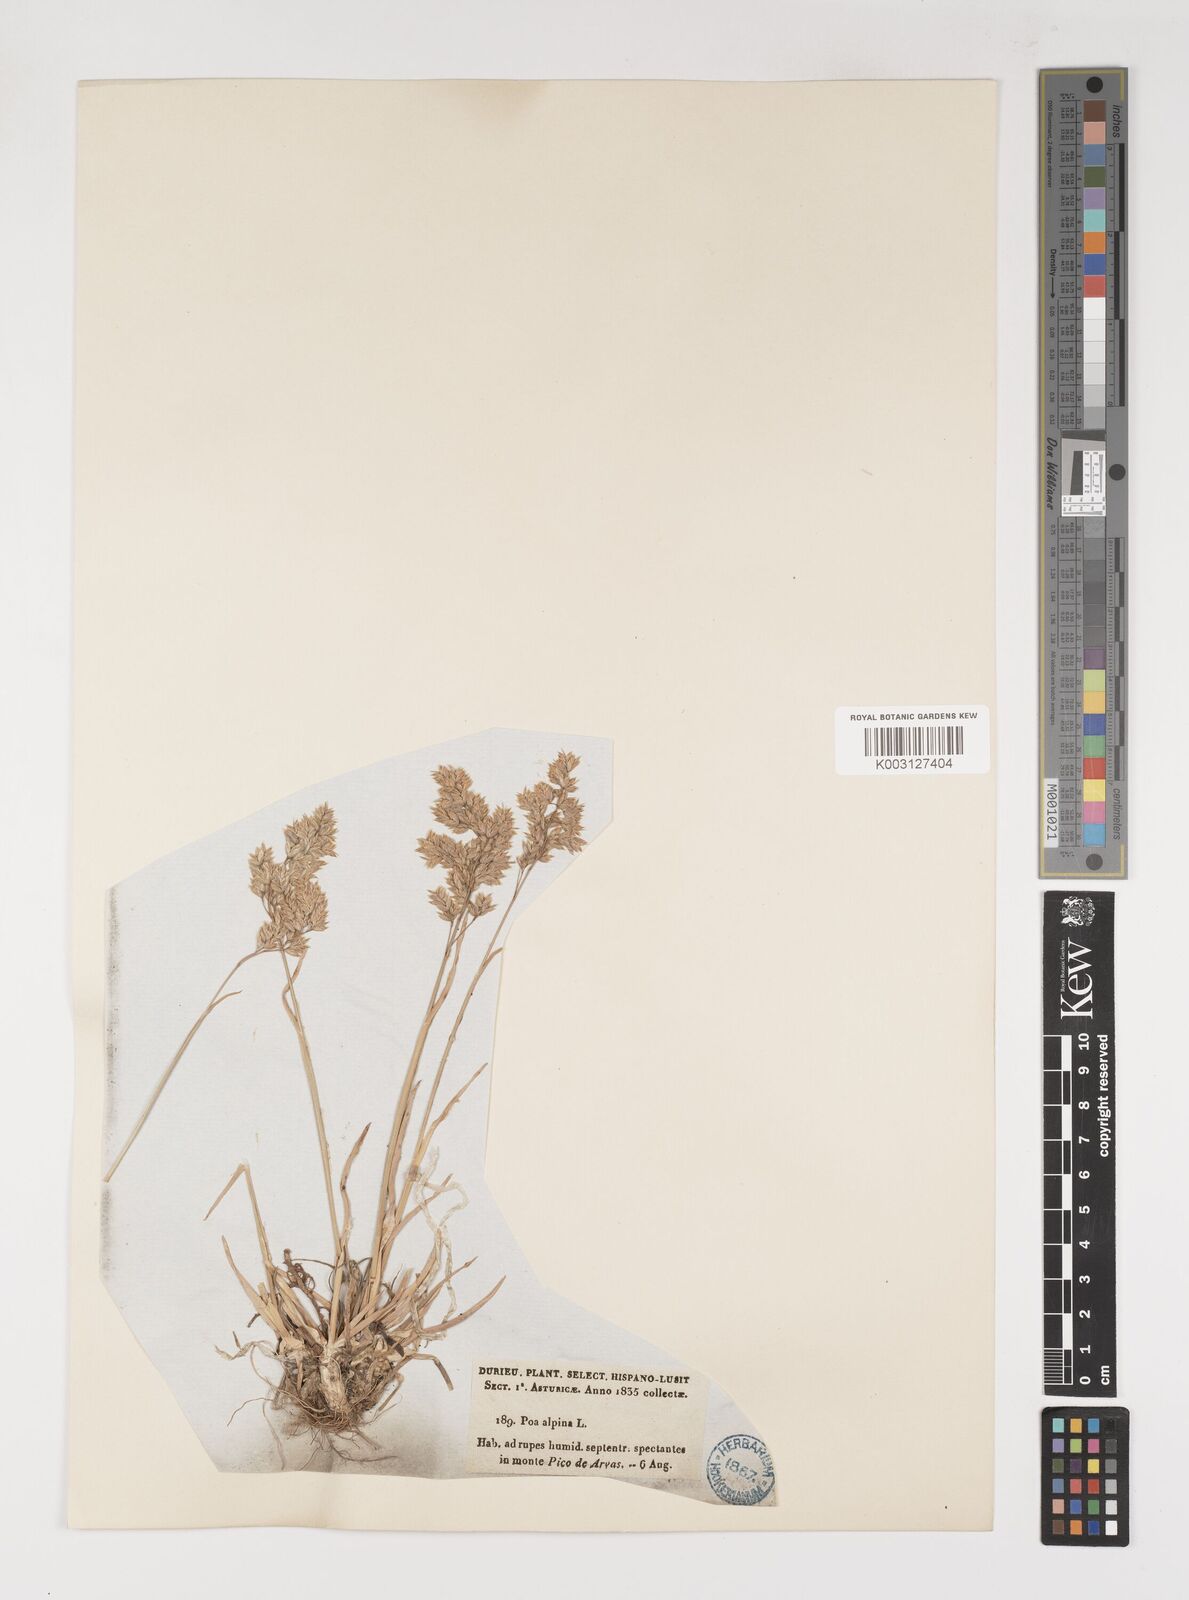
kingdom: Plantae
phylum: Tracheophyta
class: Liliopsida
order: Poales
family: Poaceae
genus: Poa
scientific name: Poa alpina
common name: Alpine bluegrass
